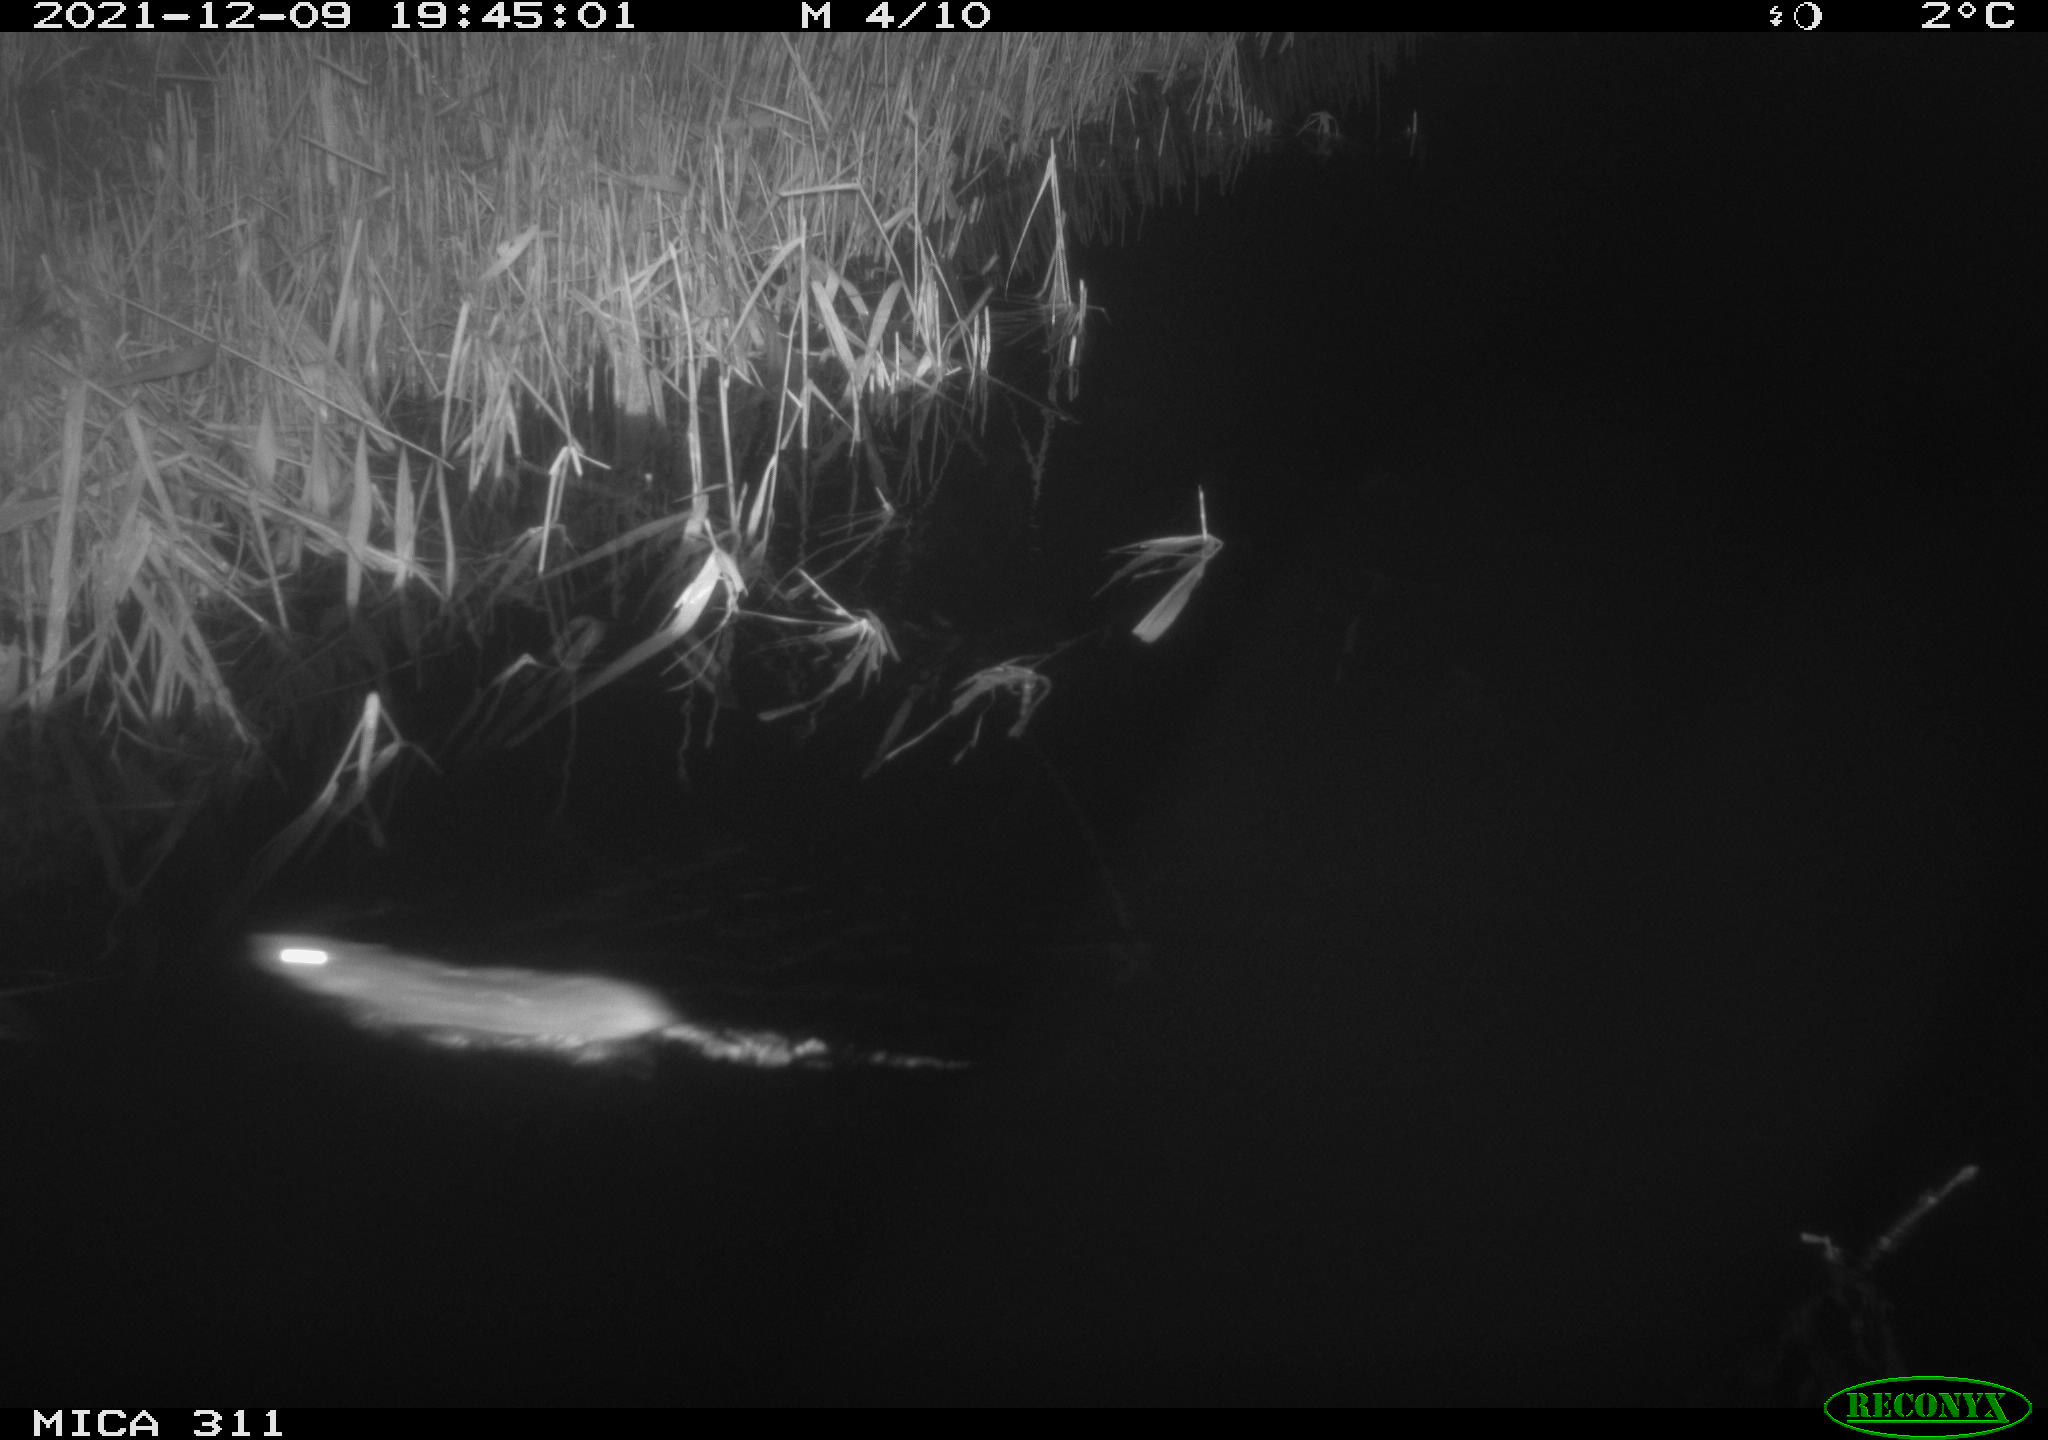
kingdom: Animalia
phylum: Chordata
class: Mammalia
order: Rodentia
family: Muridae
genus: Rattus
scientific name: Rattus norvegicus
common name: Brown rat
